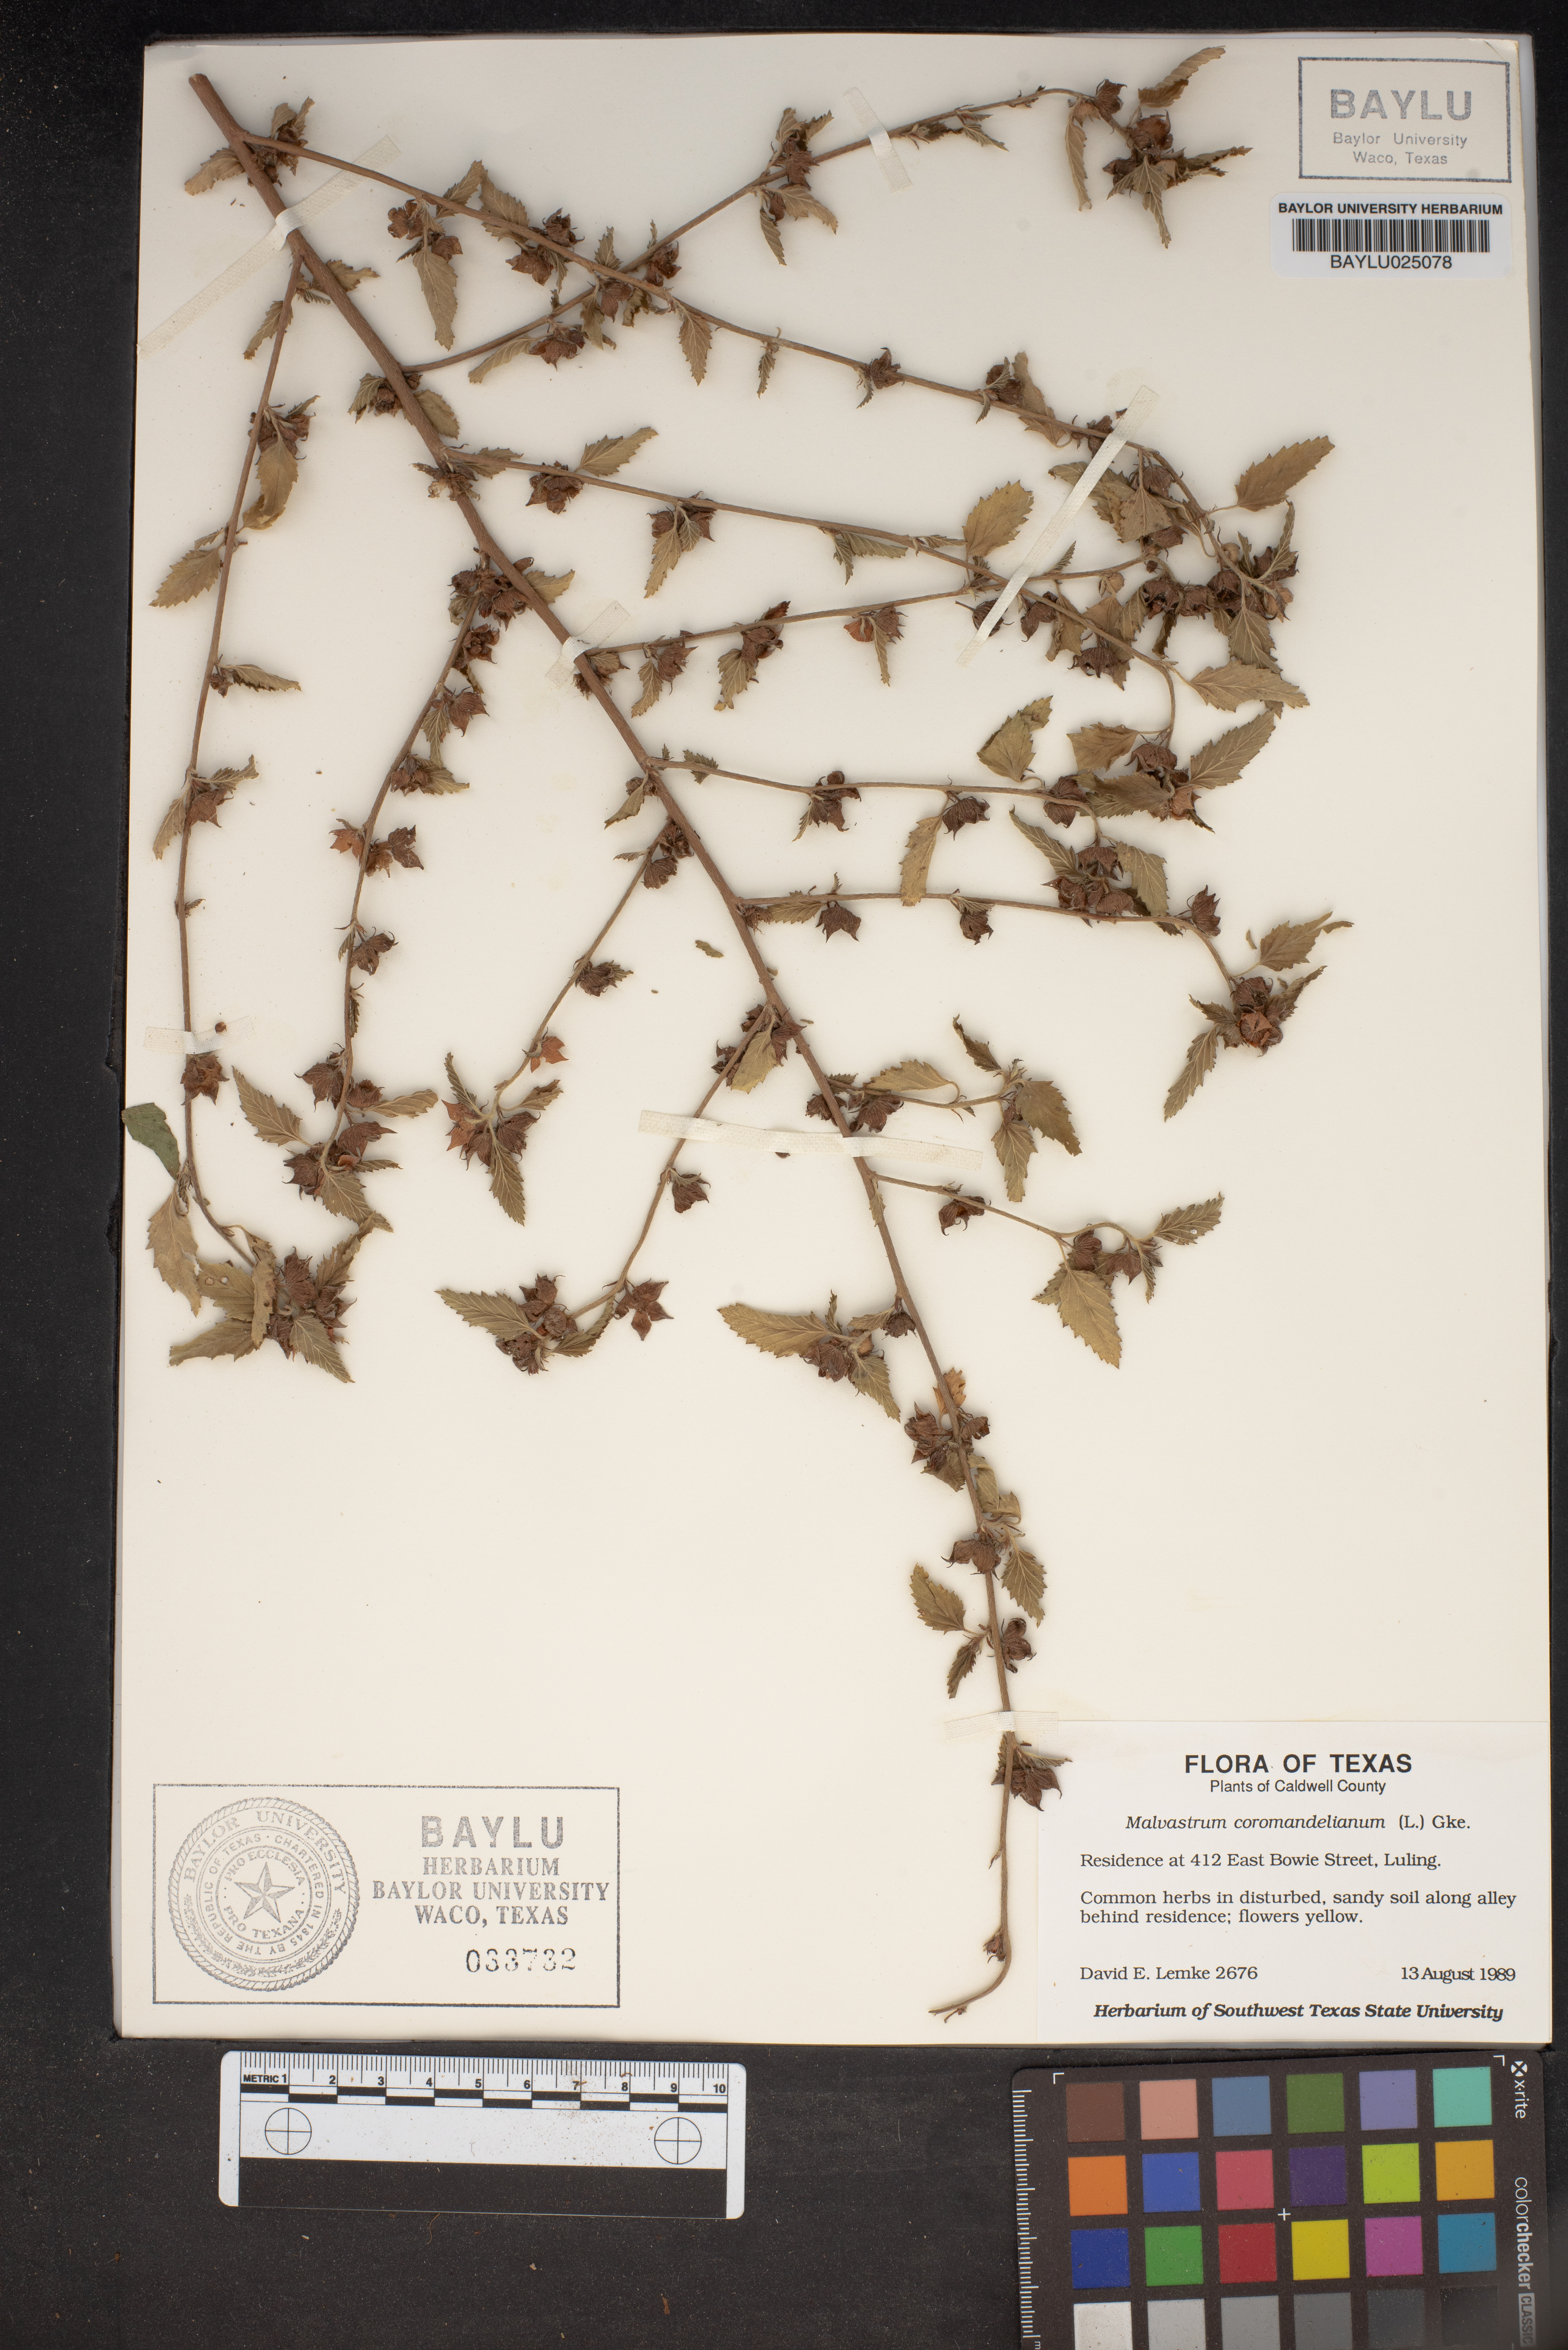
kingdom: Plantae
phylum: Tracheophyta
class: Magnoliopsida
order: Malvales
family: Malvaceae
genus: Malvastrum
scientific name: Malvastrum coromandelianum
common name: Threelobe false mallow
